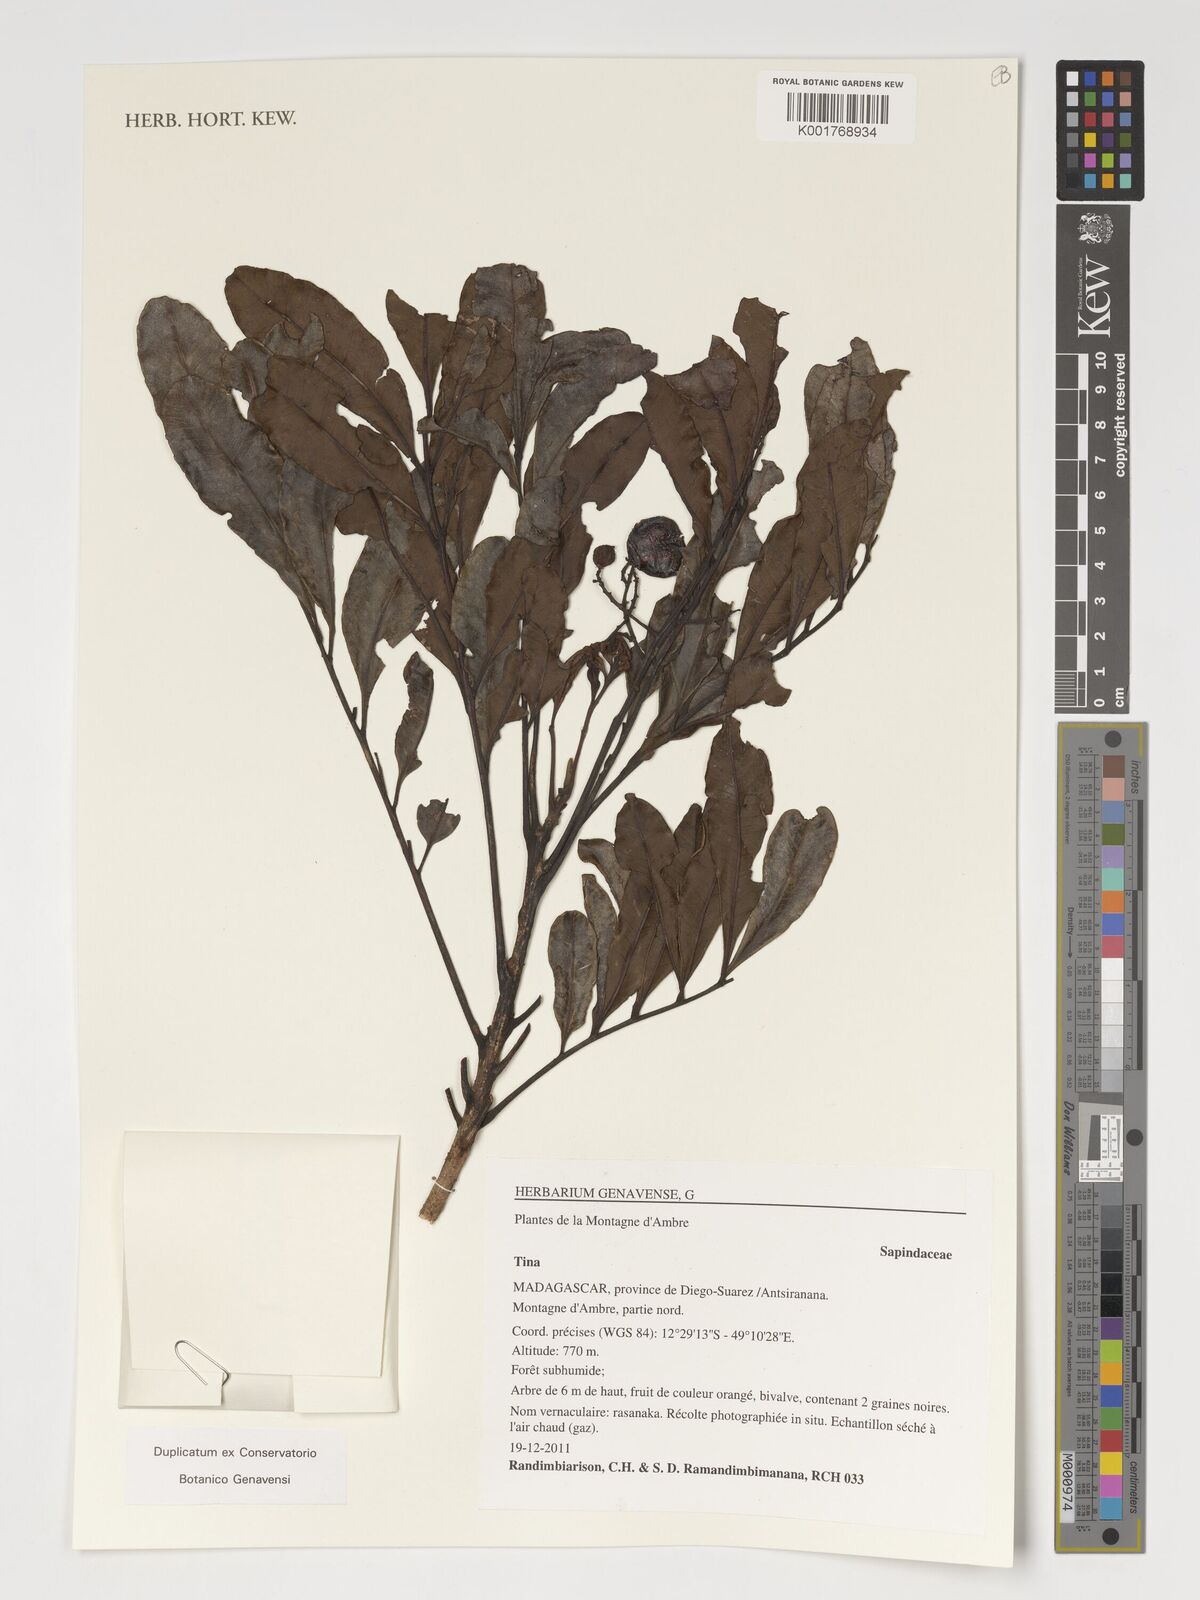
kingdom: Plantae
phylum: Tracheophyta
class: Magnoliopsida
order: Sapindales
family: Sapindaceae
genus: Tina
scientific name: Tina
